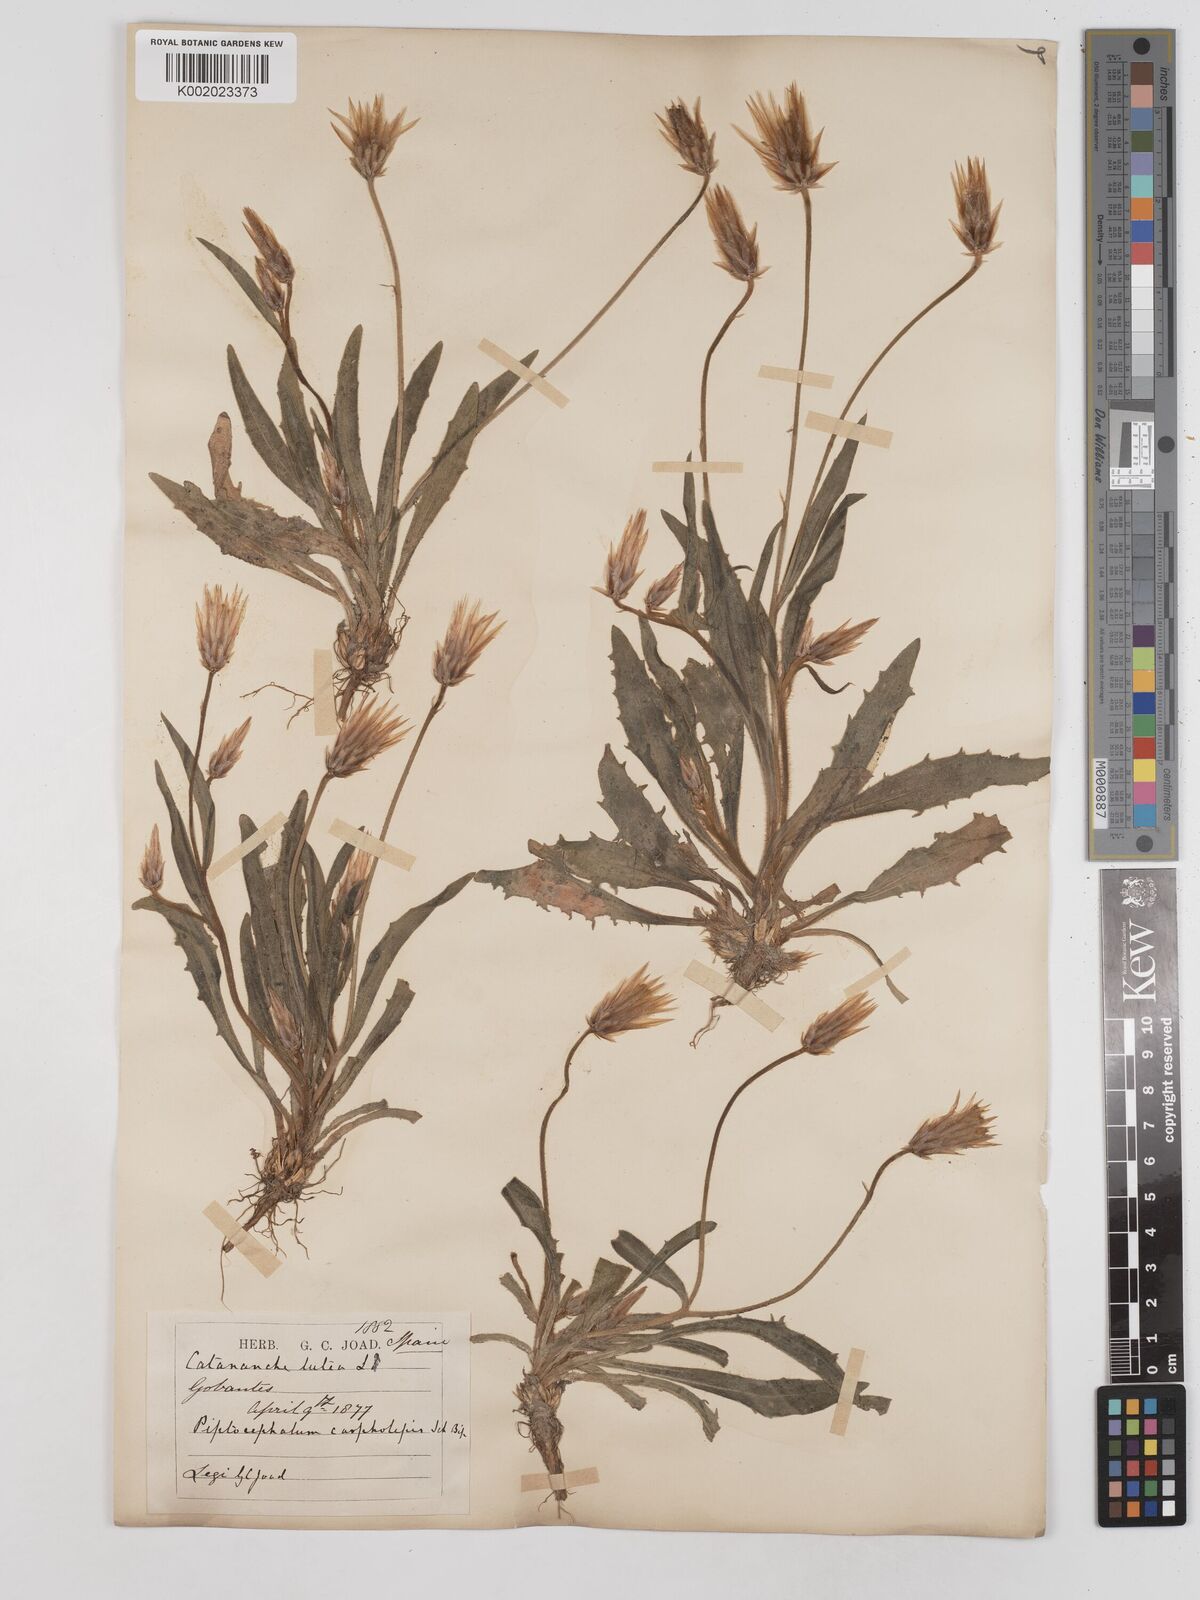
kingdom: Plantae
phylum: Tracheophyta
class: Magnoliopsida
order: Asterales
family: Asteraceae
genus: Catananche
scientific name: Catananche lutea
